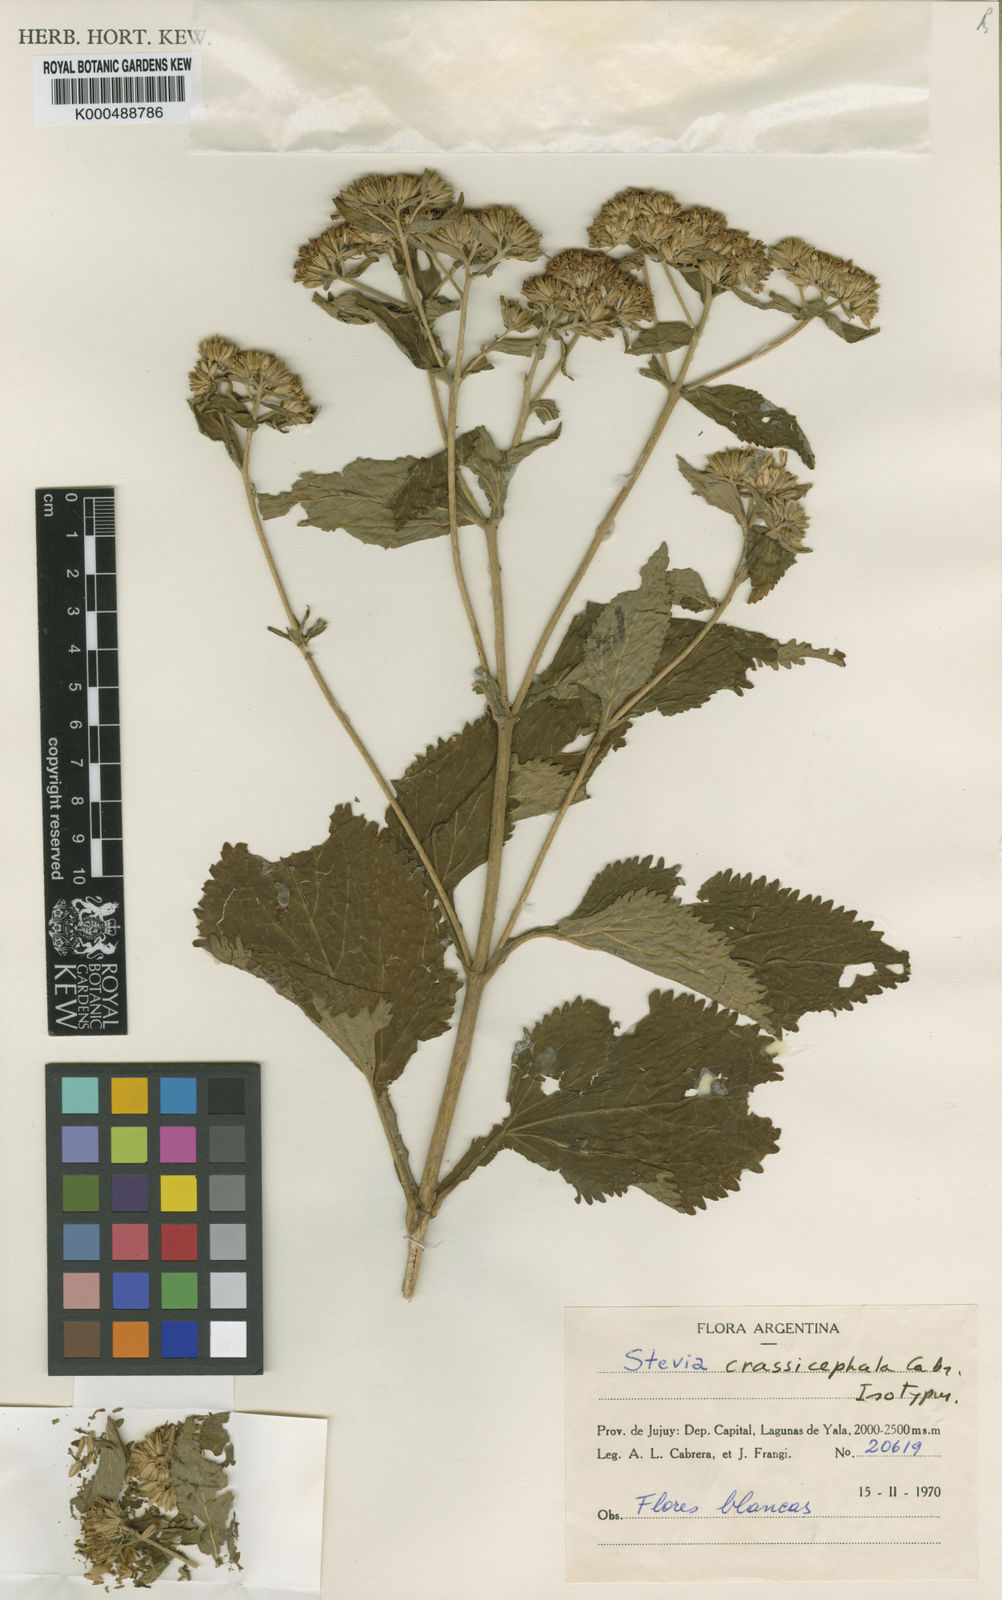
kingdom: Plantae
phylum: Tracheophyta
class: Magnoliopsida
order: Asterales
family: Asteraceae
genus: Stevia
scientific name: Stevia crassicephala
